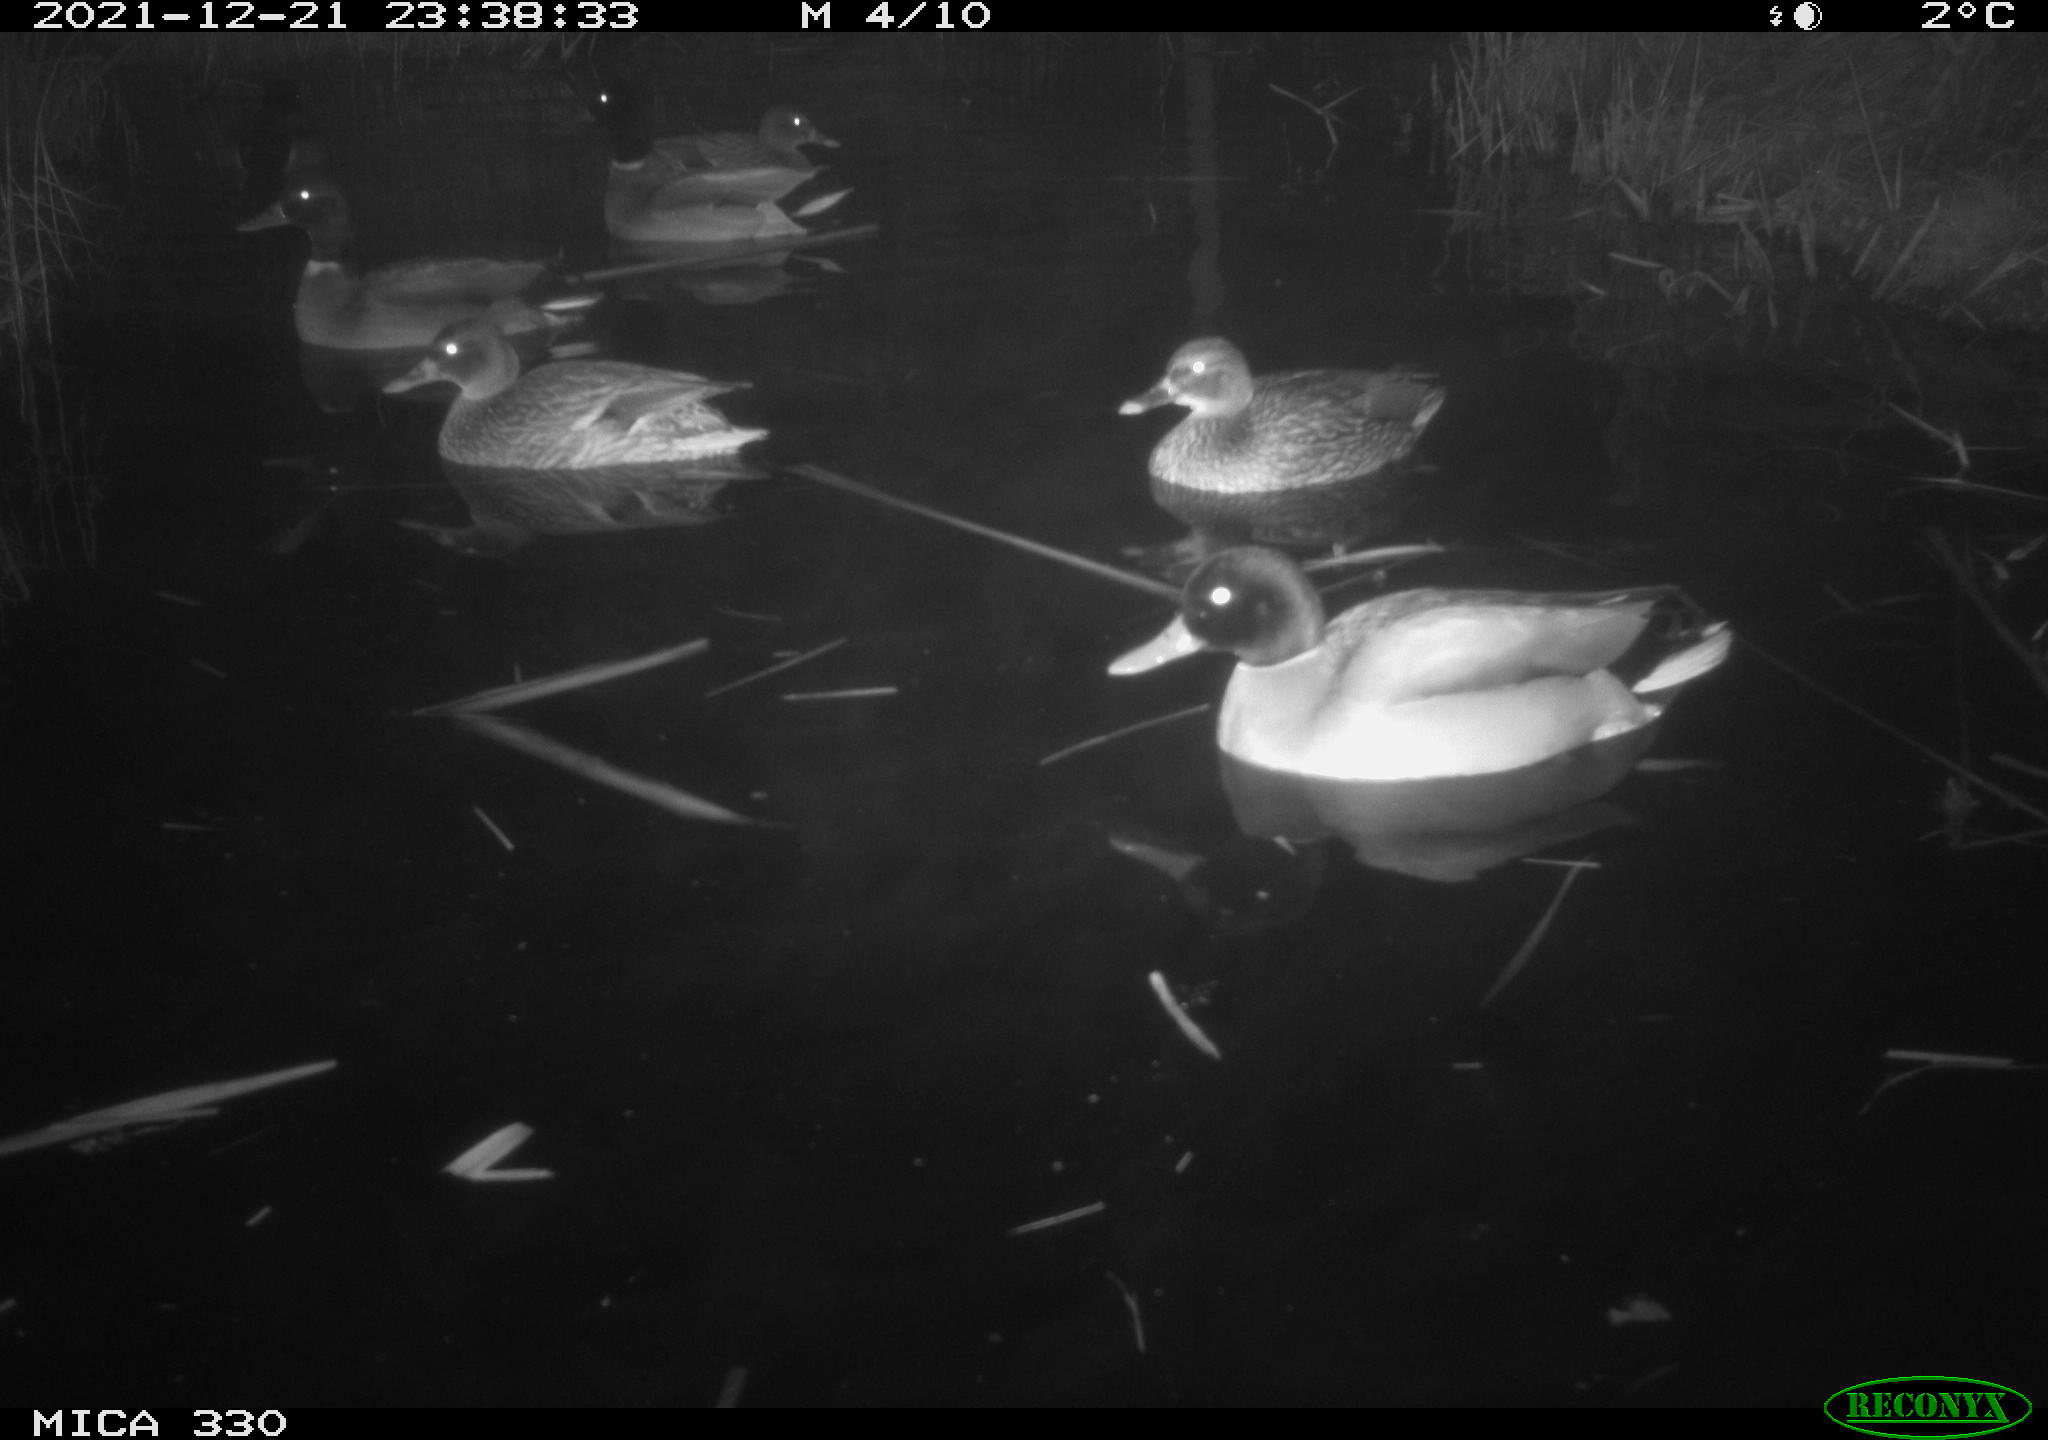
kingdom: Animalia
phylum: Chordata
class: Aves
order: Anseriformes
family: Anatidae
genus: Anas
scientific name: Anas platyrhynchos
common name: Mallard
